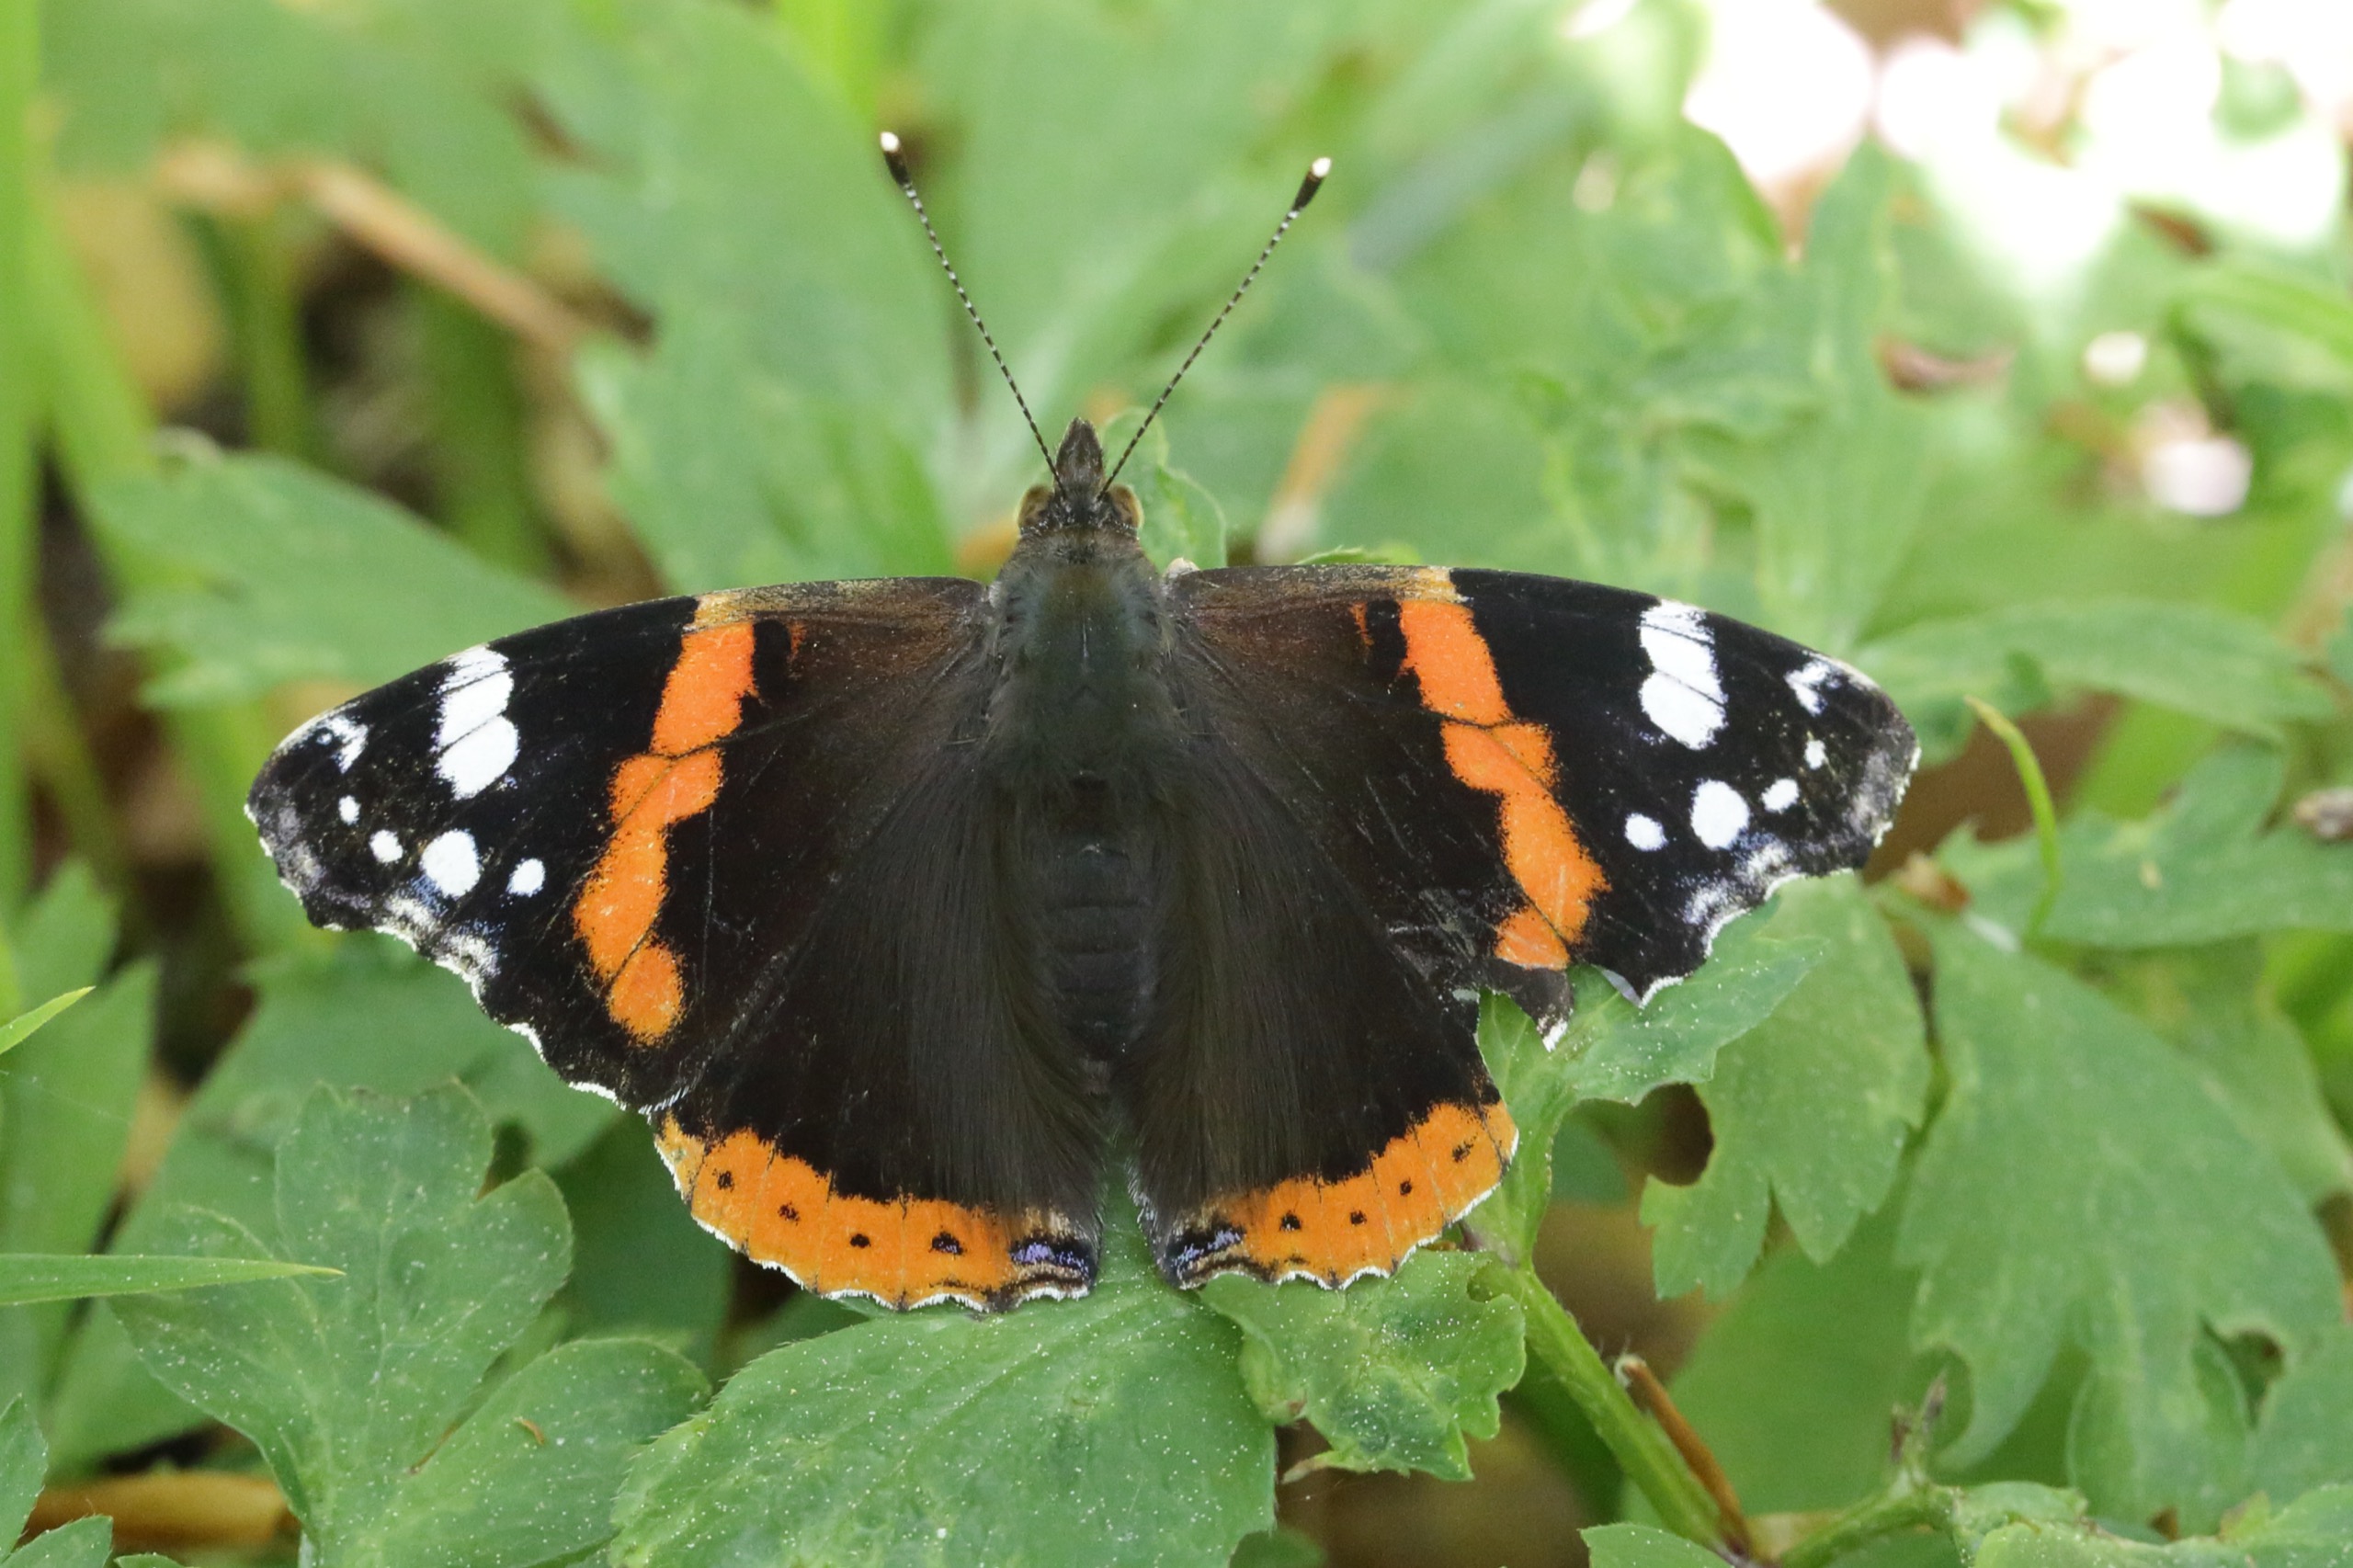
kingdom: Animalia
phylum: Arthropoda
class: Insecta
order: Lepidoptera
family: Nymphalidae
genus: Vanessa
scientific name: Vanessa atalanta
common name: Admiral
